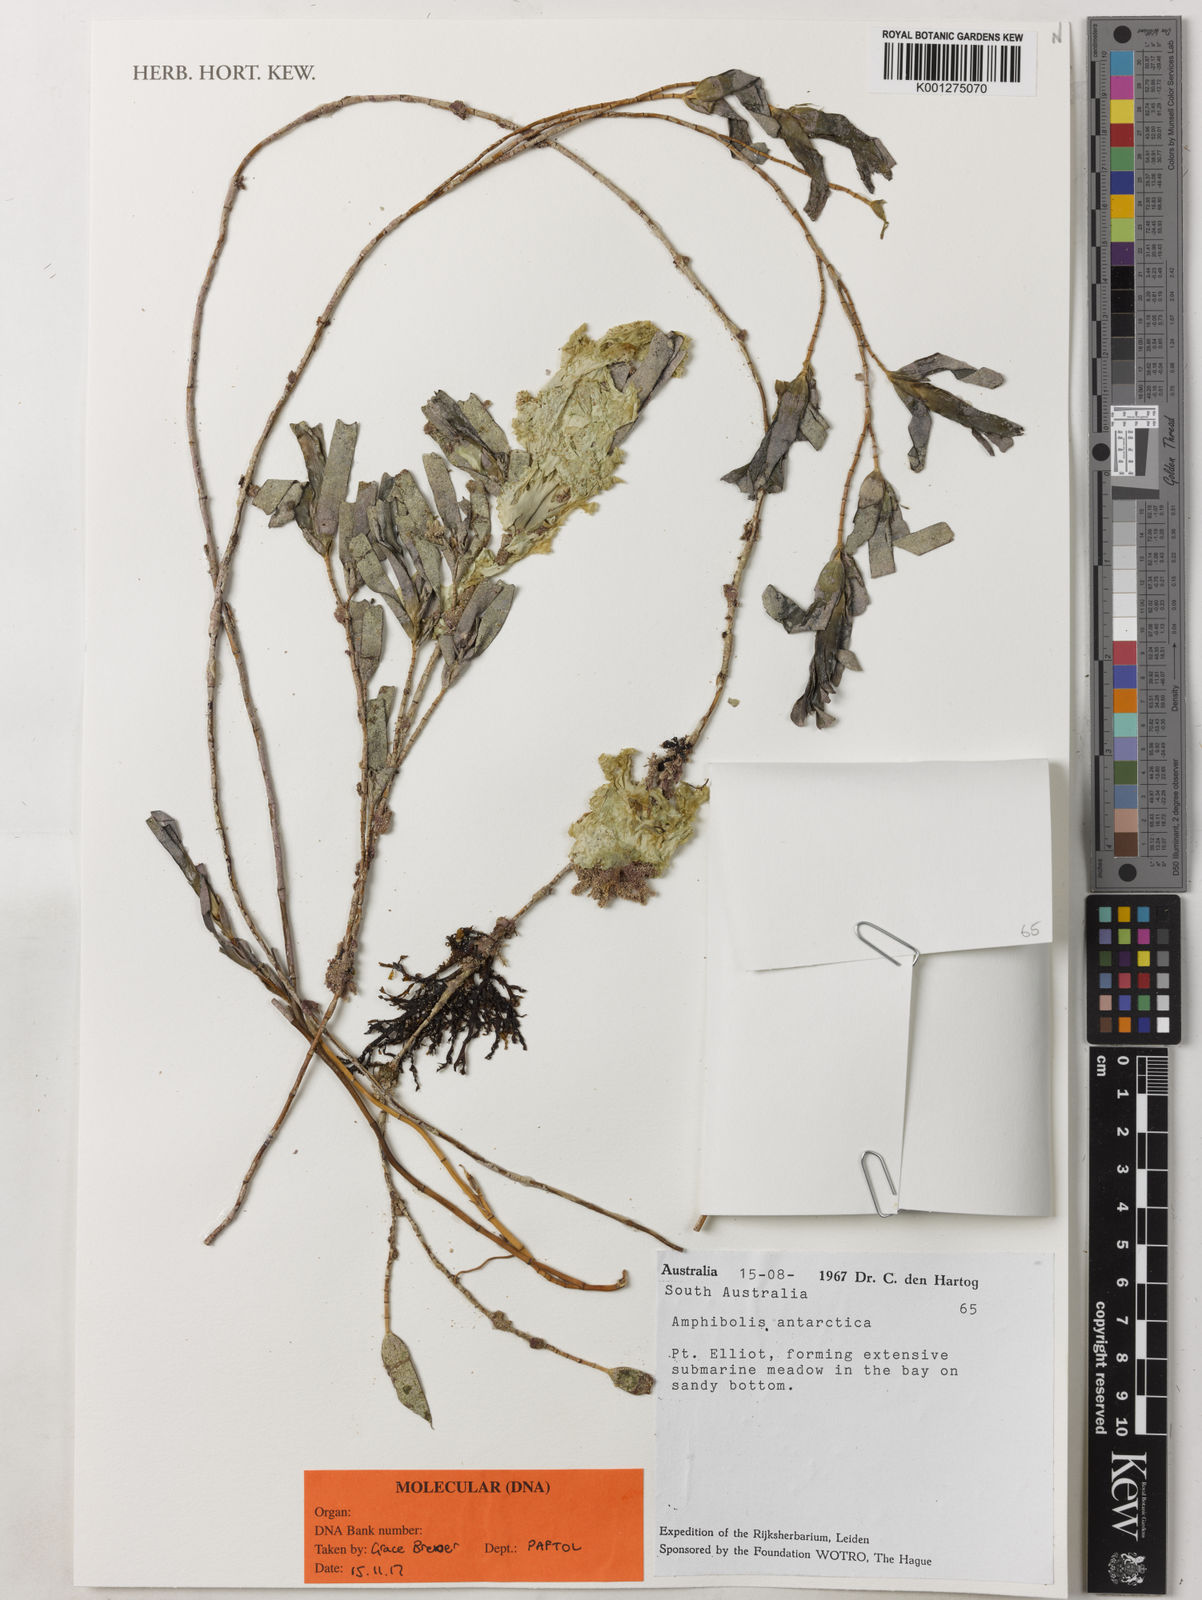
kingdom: Plantae
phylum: Tracheophyta
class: Liliopsida
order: Alismatales
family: Cymodoceaceae
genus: Amphibolis
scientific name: Amphibolis antarctica
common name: Species code: aa
